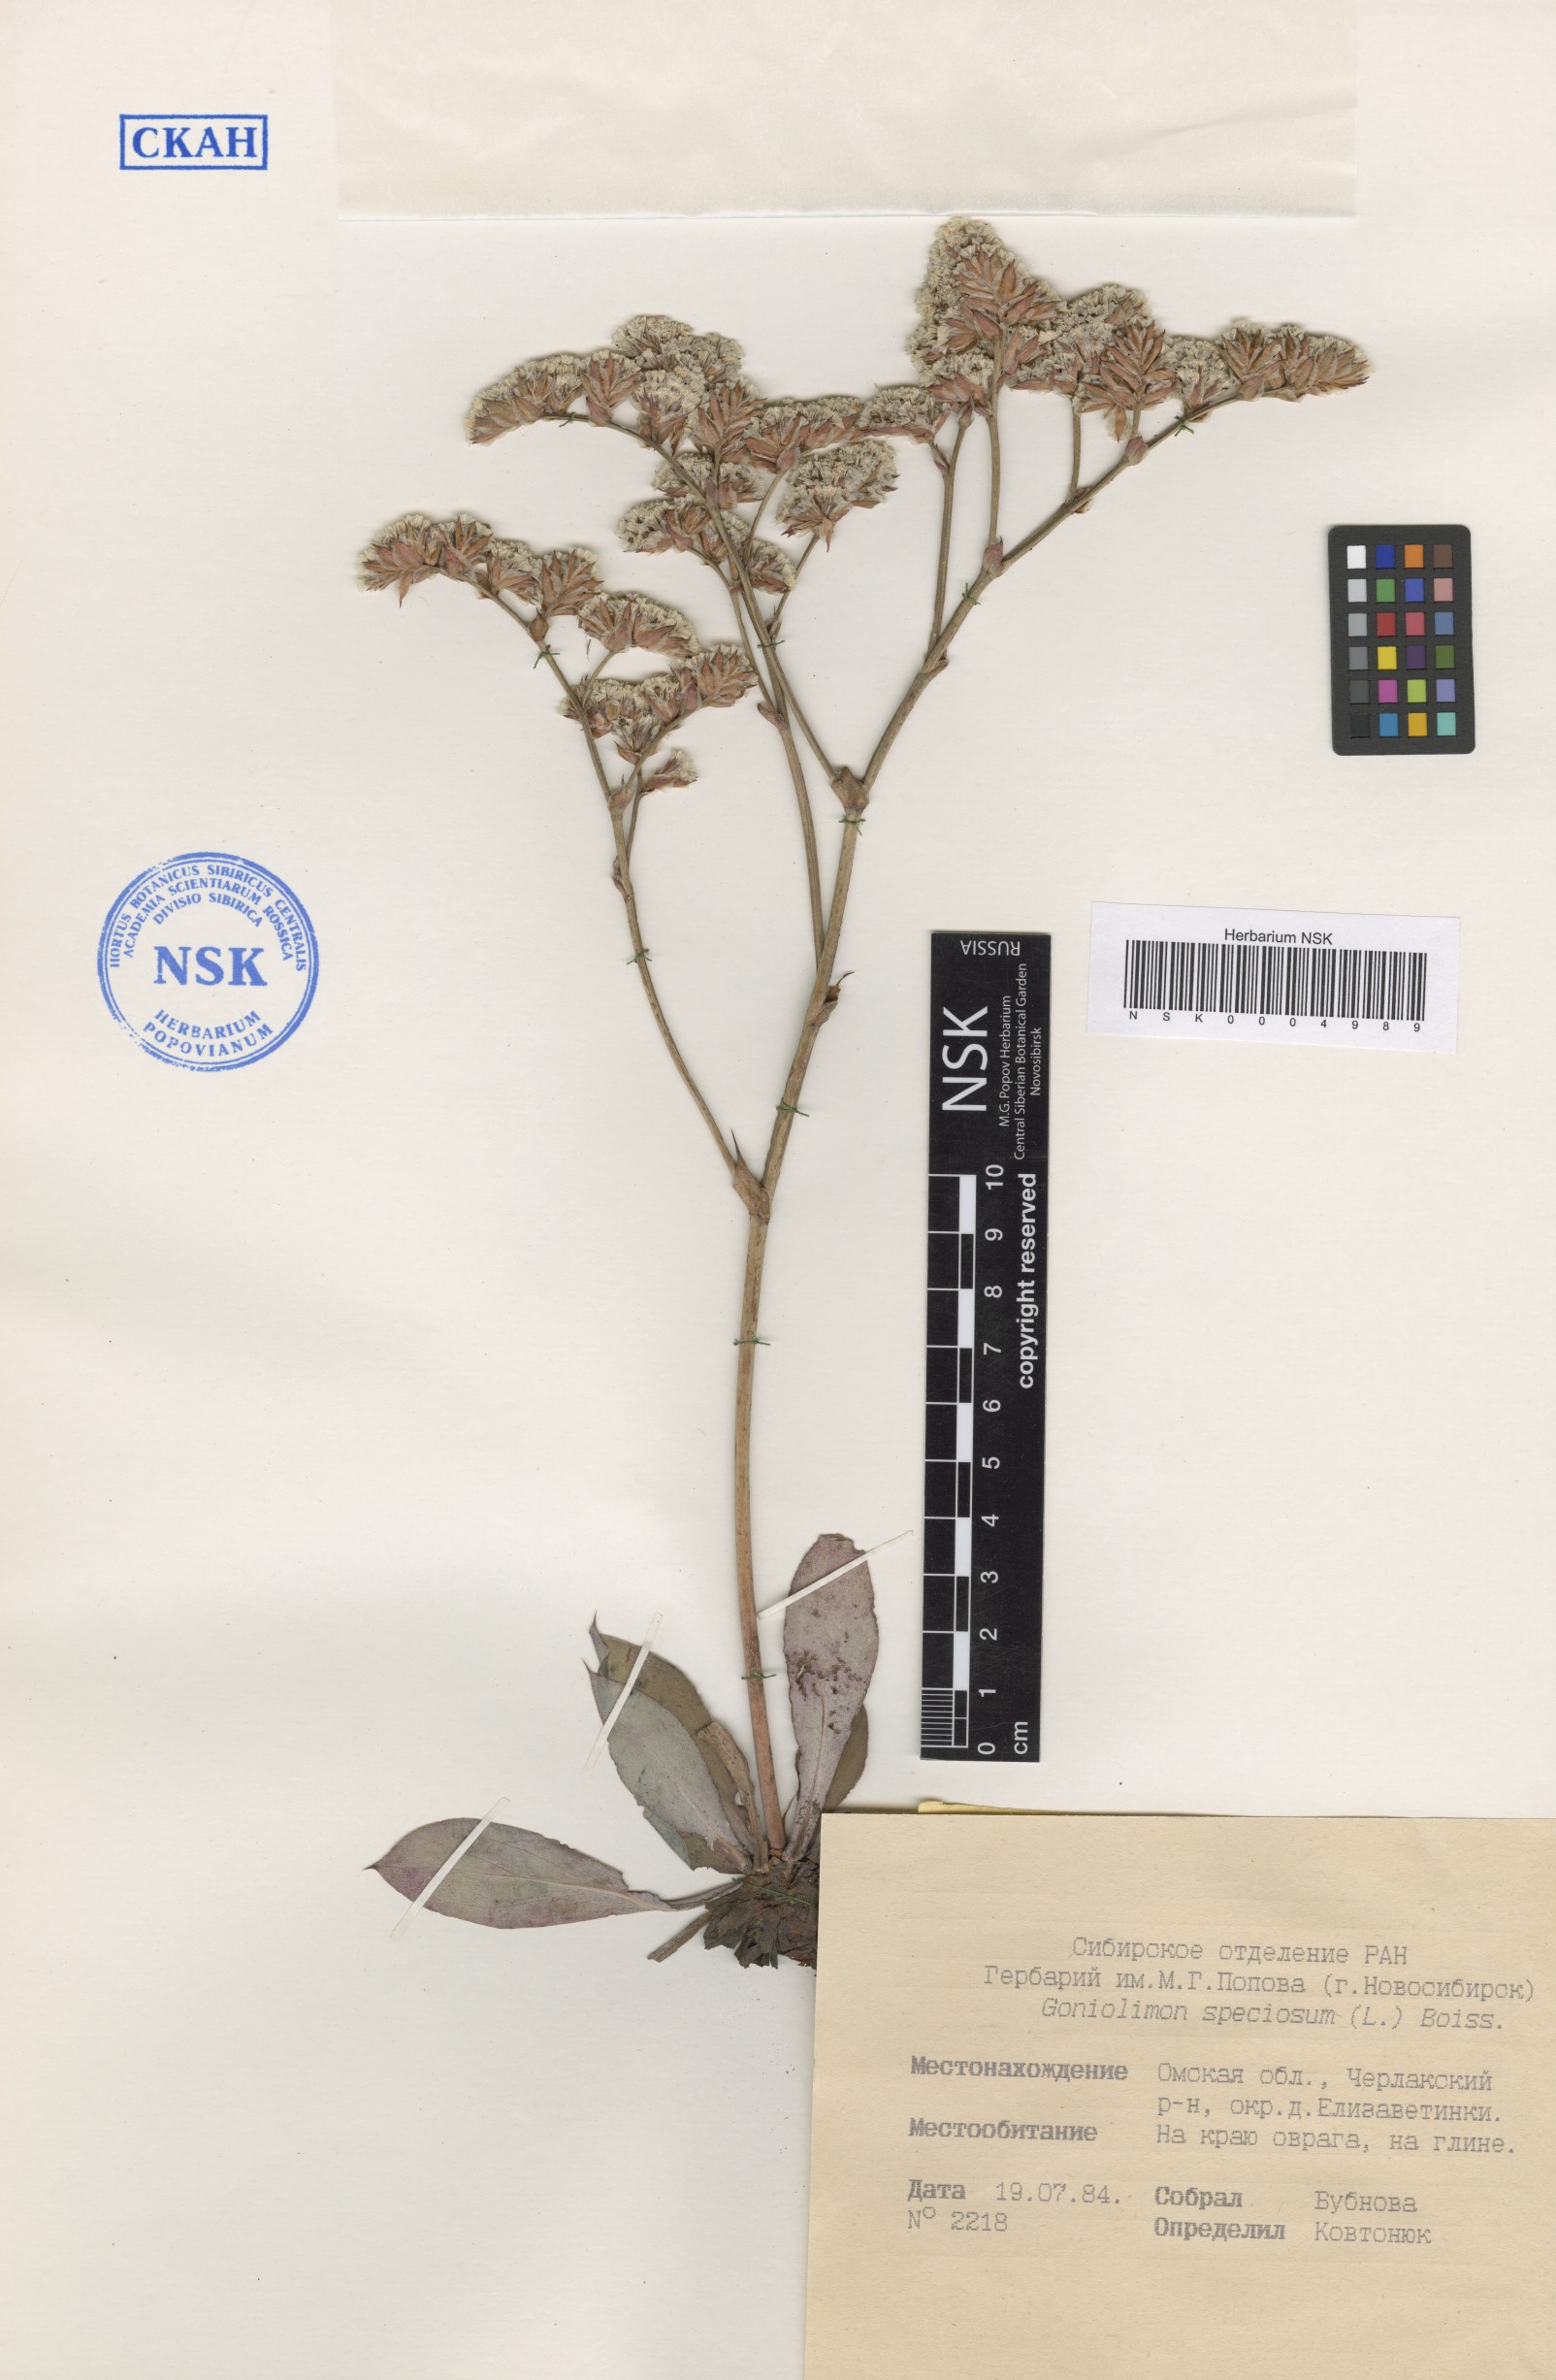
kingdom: Plantae
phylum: Tracheophyta
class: Magnoliopsida
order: Caryophyllales
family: Plumbaginaceae
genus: Goniolimon
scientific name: Goniolimon speciosum
